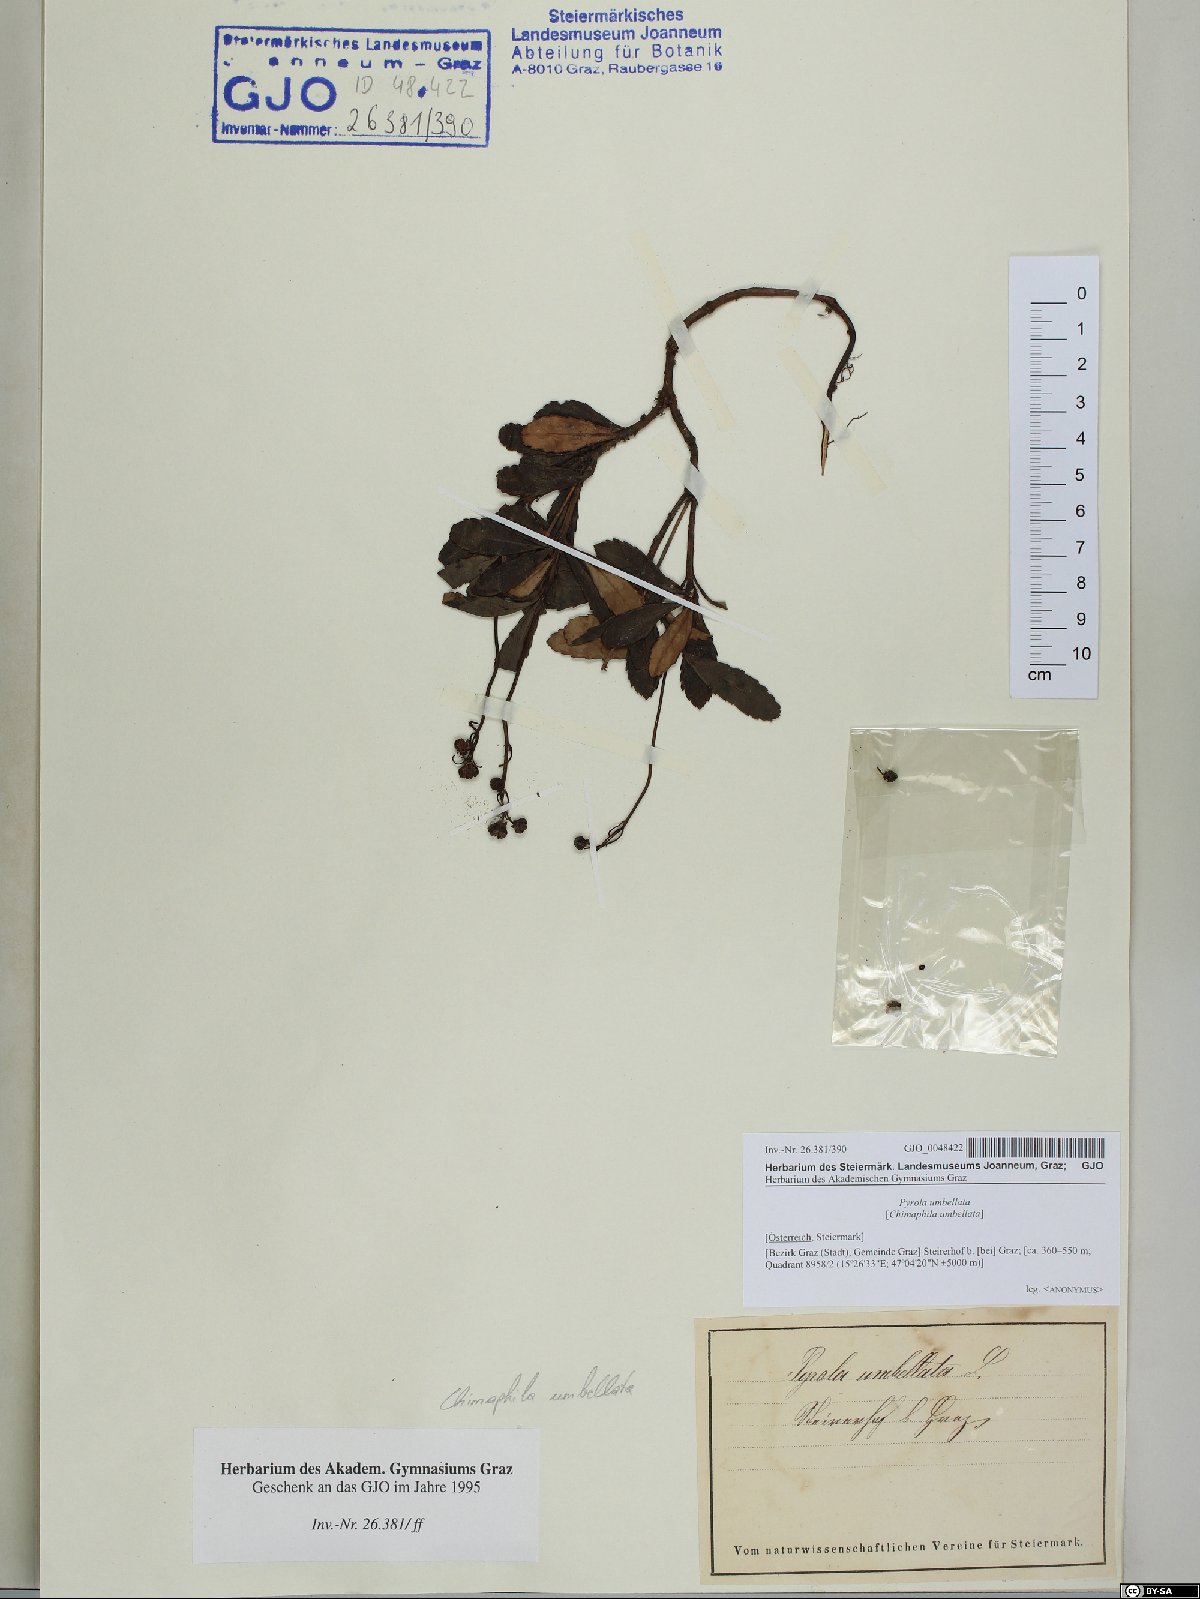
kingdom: Plantae
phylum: Tracheophyta
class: Magnoliopsida
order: Ericales
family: Ericaceae
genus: Chimaphila
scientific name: Chimaphila umbellata
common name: Pipsissewa
